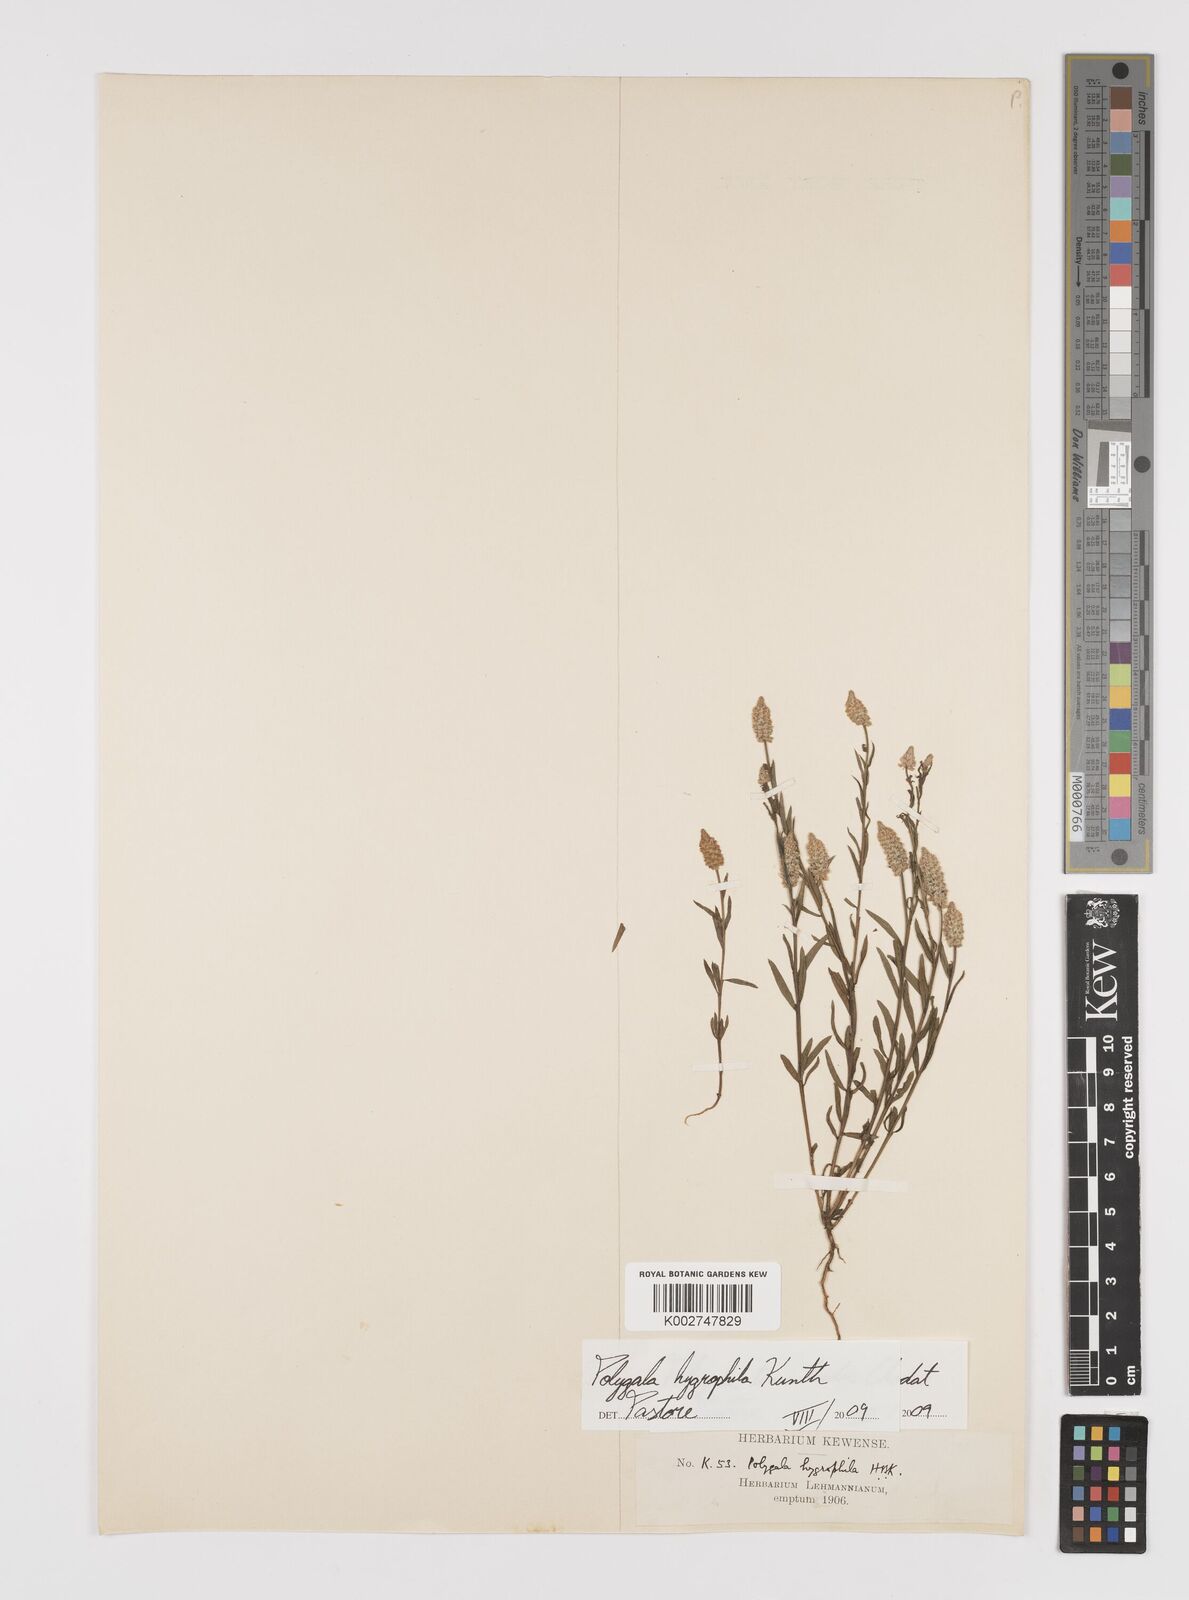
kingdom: Plantae
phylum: Tracheophyta
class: Magnoliopsida
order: Fabales
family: Polygalaceae
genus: Polygala
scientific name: Polygala hygrophila
